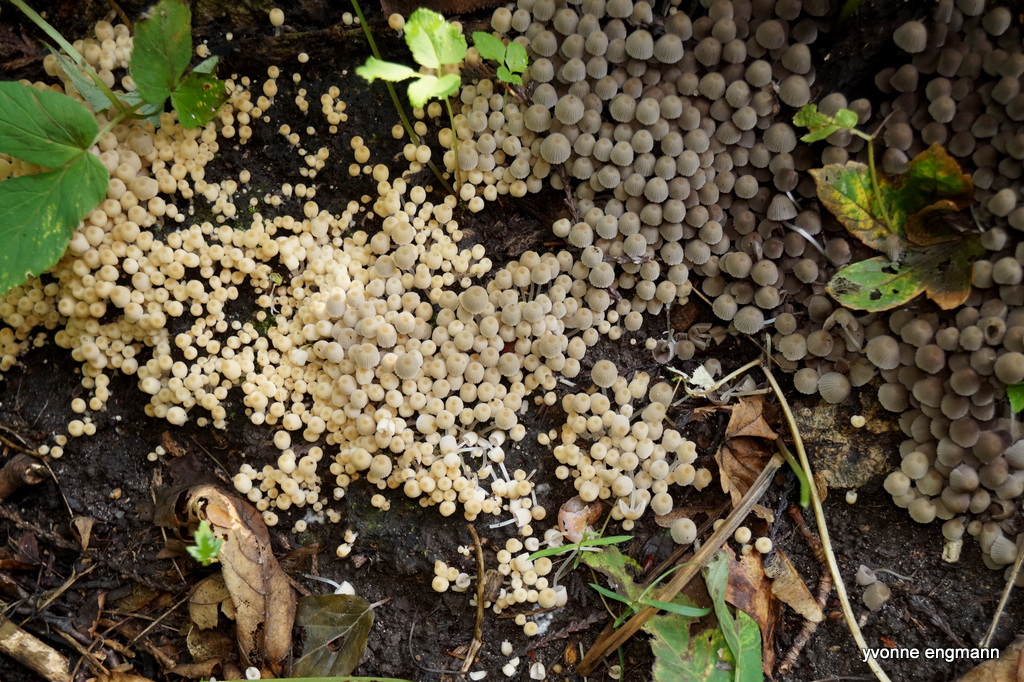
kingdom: Fungi
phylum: Basidiomycota
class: Agaricomycetes
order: Agaricales
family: Psathyrellaceae
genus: Coprinellus
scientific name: Coprinellus disseminatus
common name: bredsået blækhat
